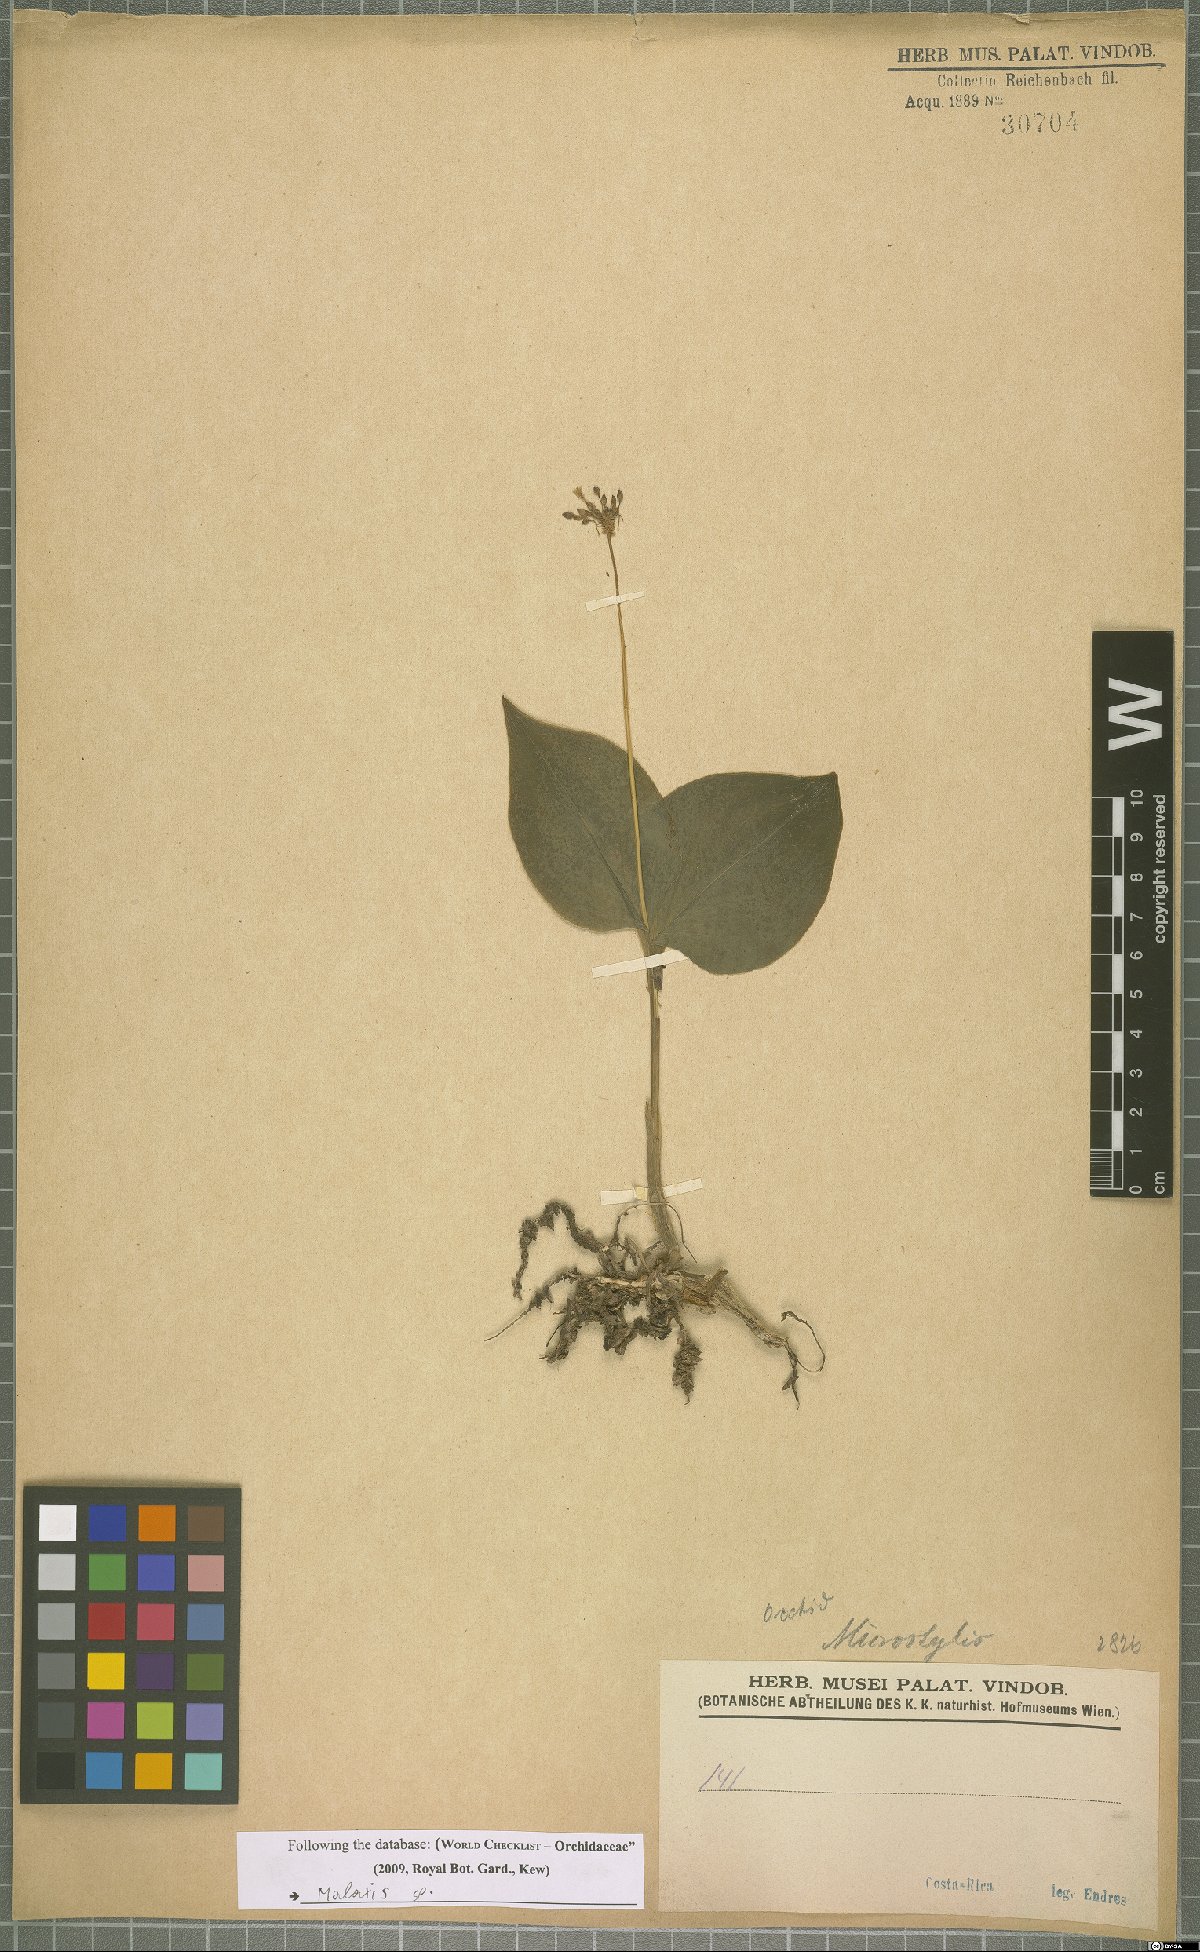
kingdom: Plantae
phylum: Tracheophyta
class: Liliopsida
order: Asparagales
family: Orchidaceae
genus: Malaxis
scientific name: Malaxis
